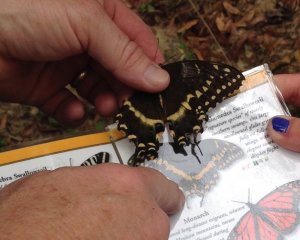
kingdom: Animalia
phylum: Arthropoda
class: Insecta
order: Lepidoptera
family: Papilionidae
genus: Pterourus
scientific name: Pterourus palamedes
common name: Palamedes Swallowtail
